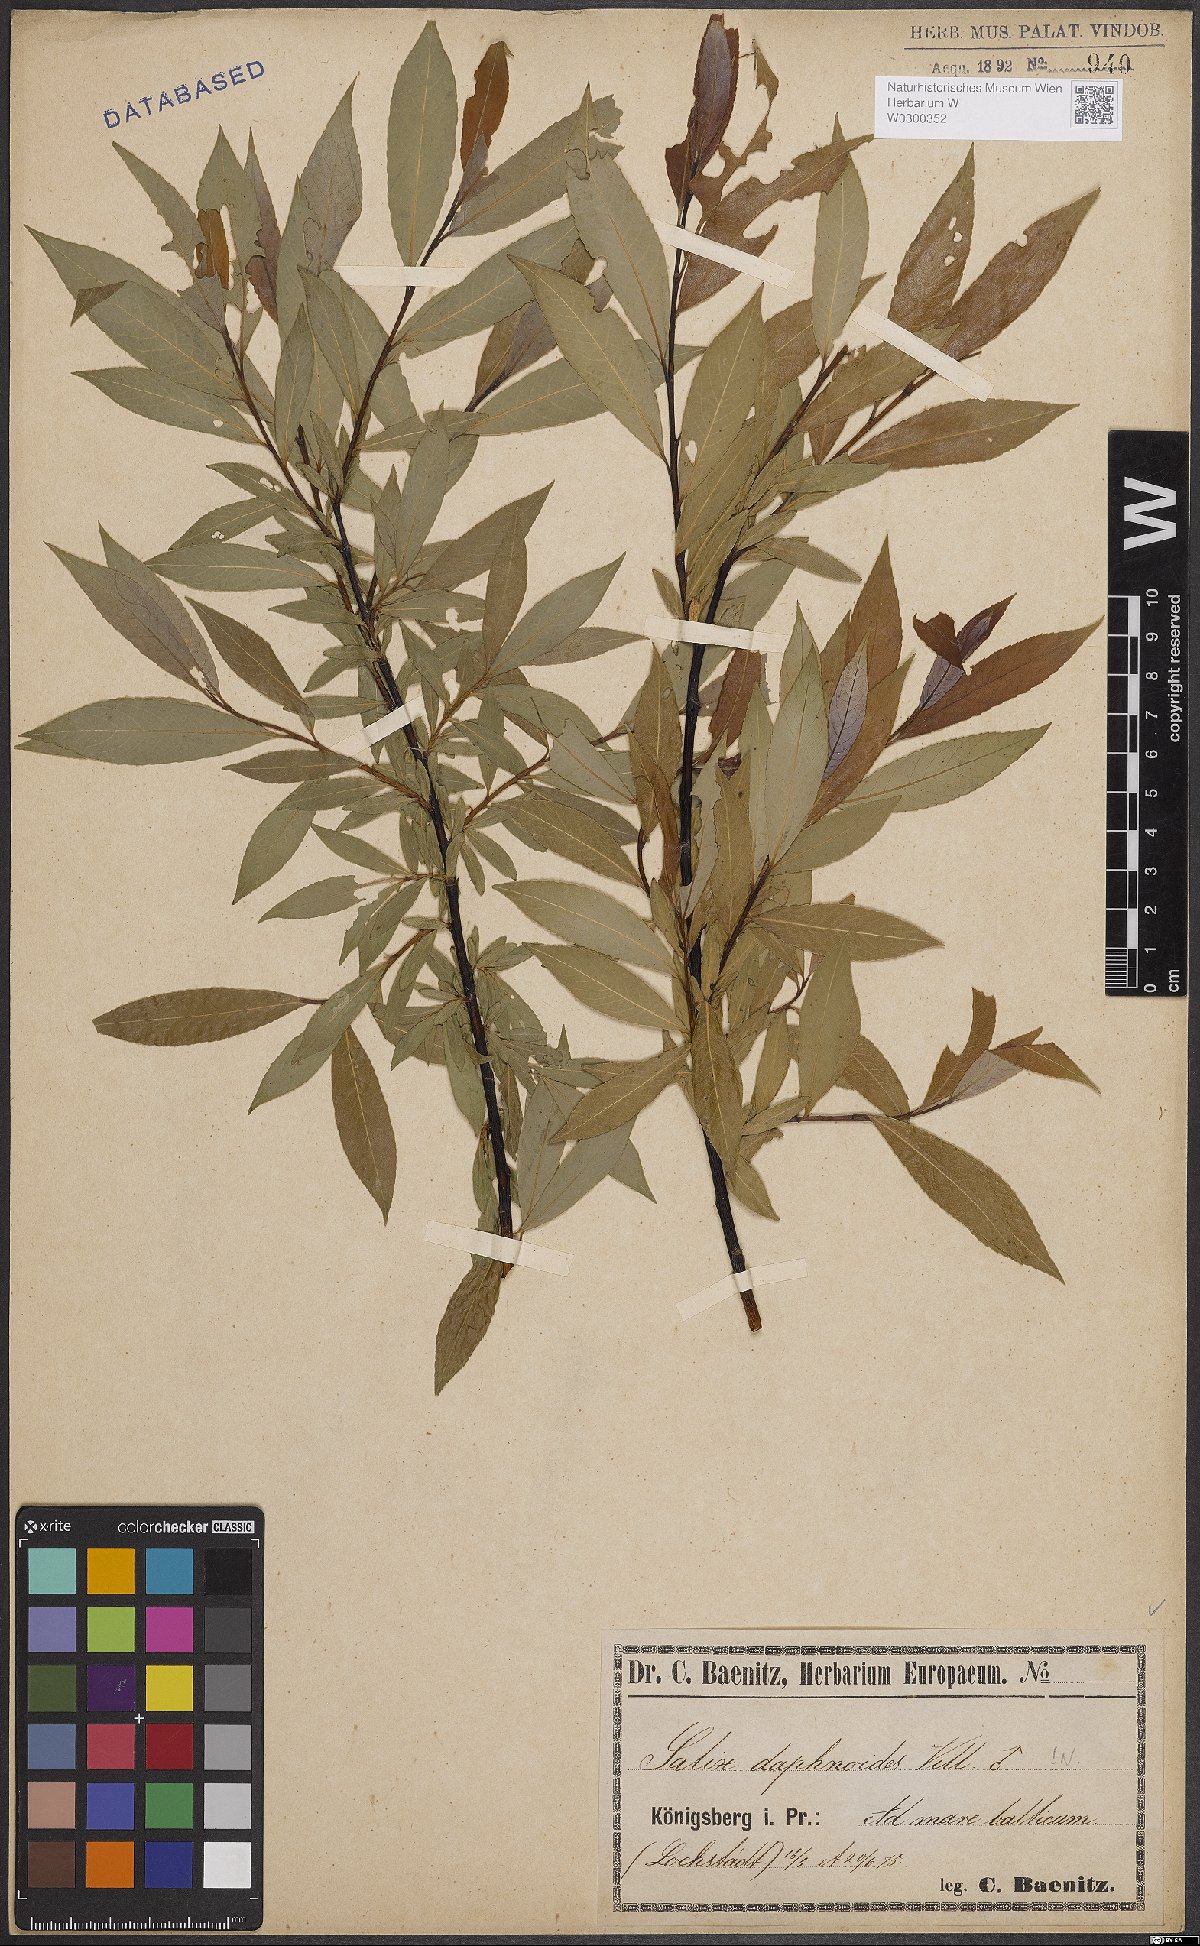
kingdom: Plantae
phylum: Tracheophyta
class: Magnoliopsida
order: Malpighiales
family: Salicaceae
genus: Salix
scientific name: Salix daphnoides
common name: European violet-willow
